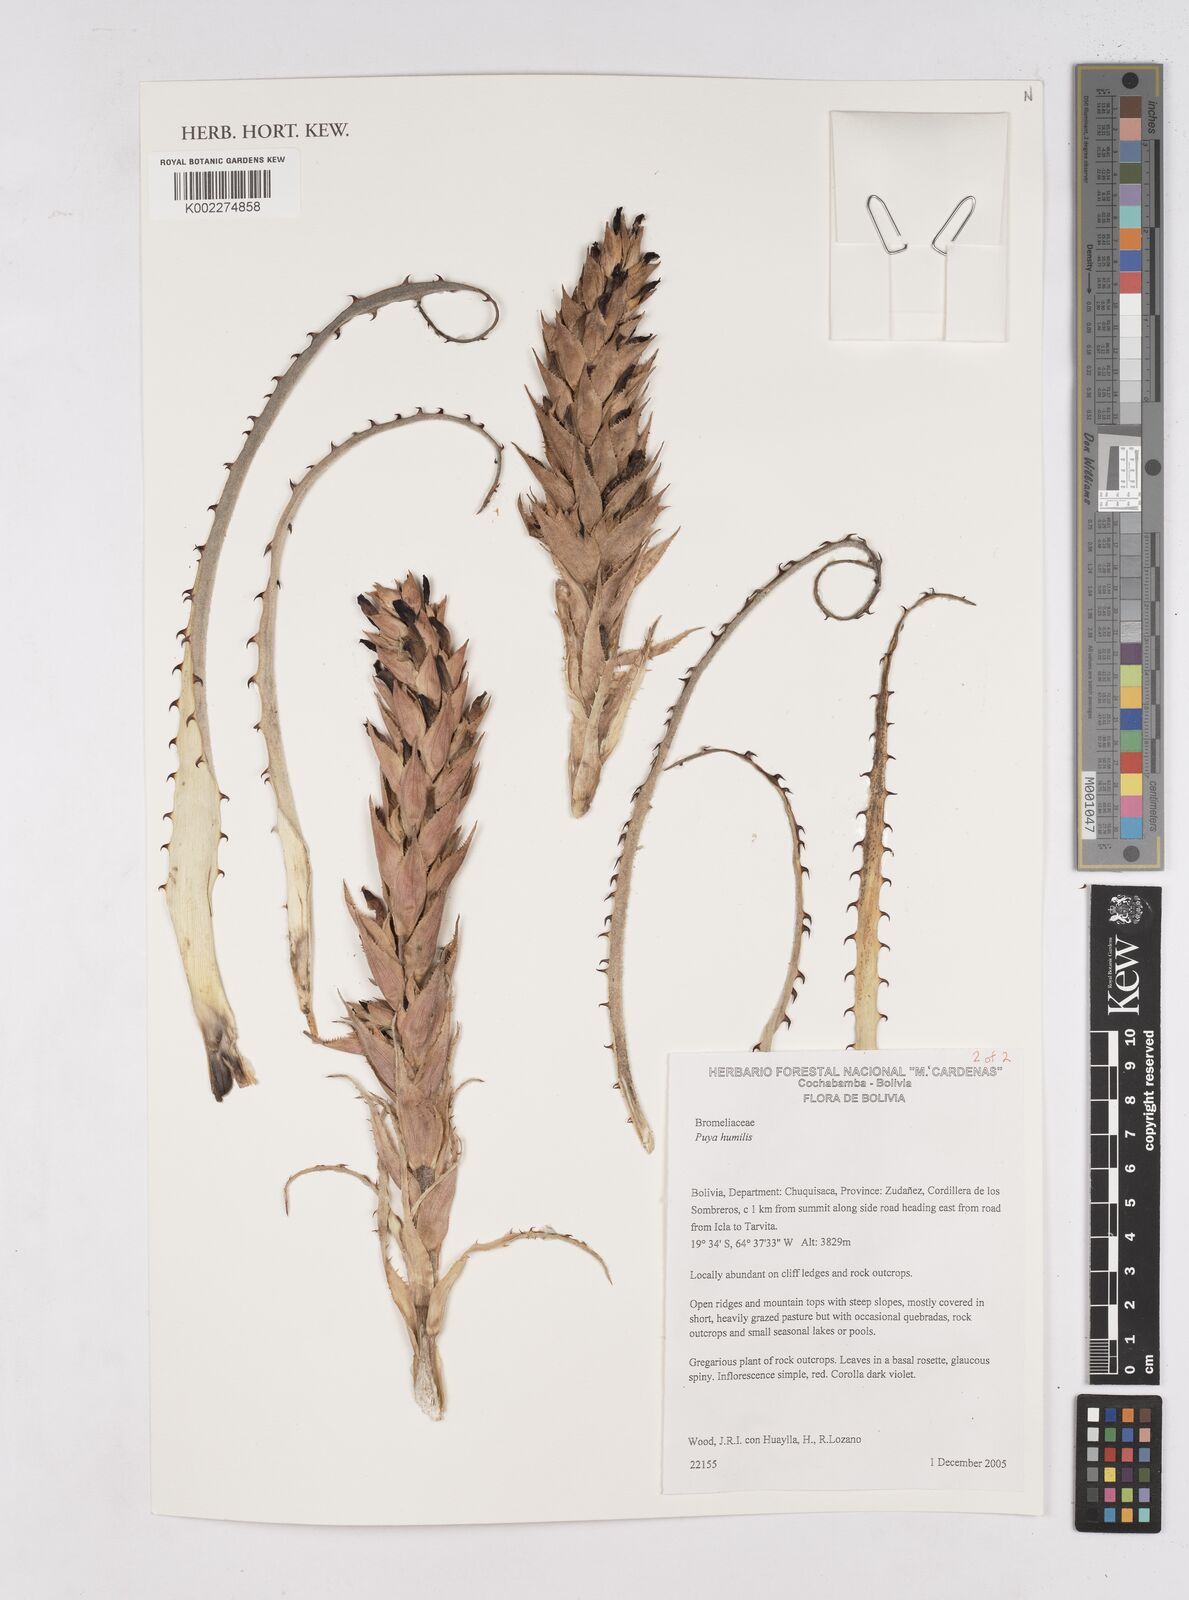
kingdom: Plantae
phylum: Tracheophyta
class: Liliopsida
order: Poales
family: Bromeliaceae
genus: Puya
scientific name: Puya humilis
